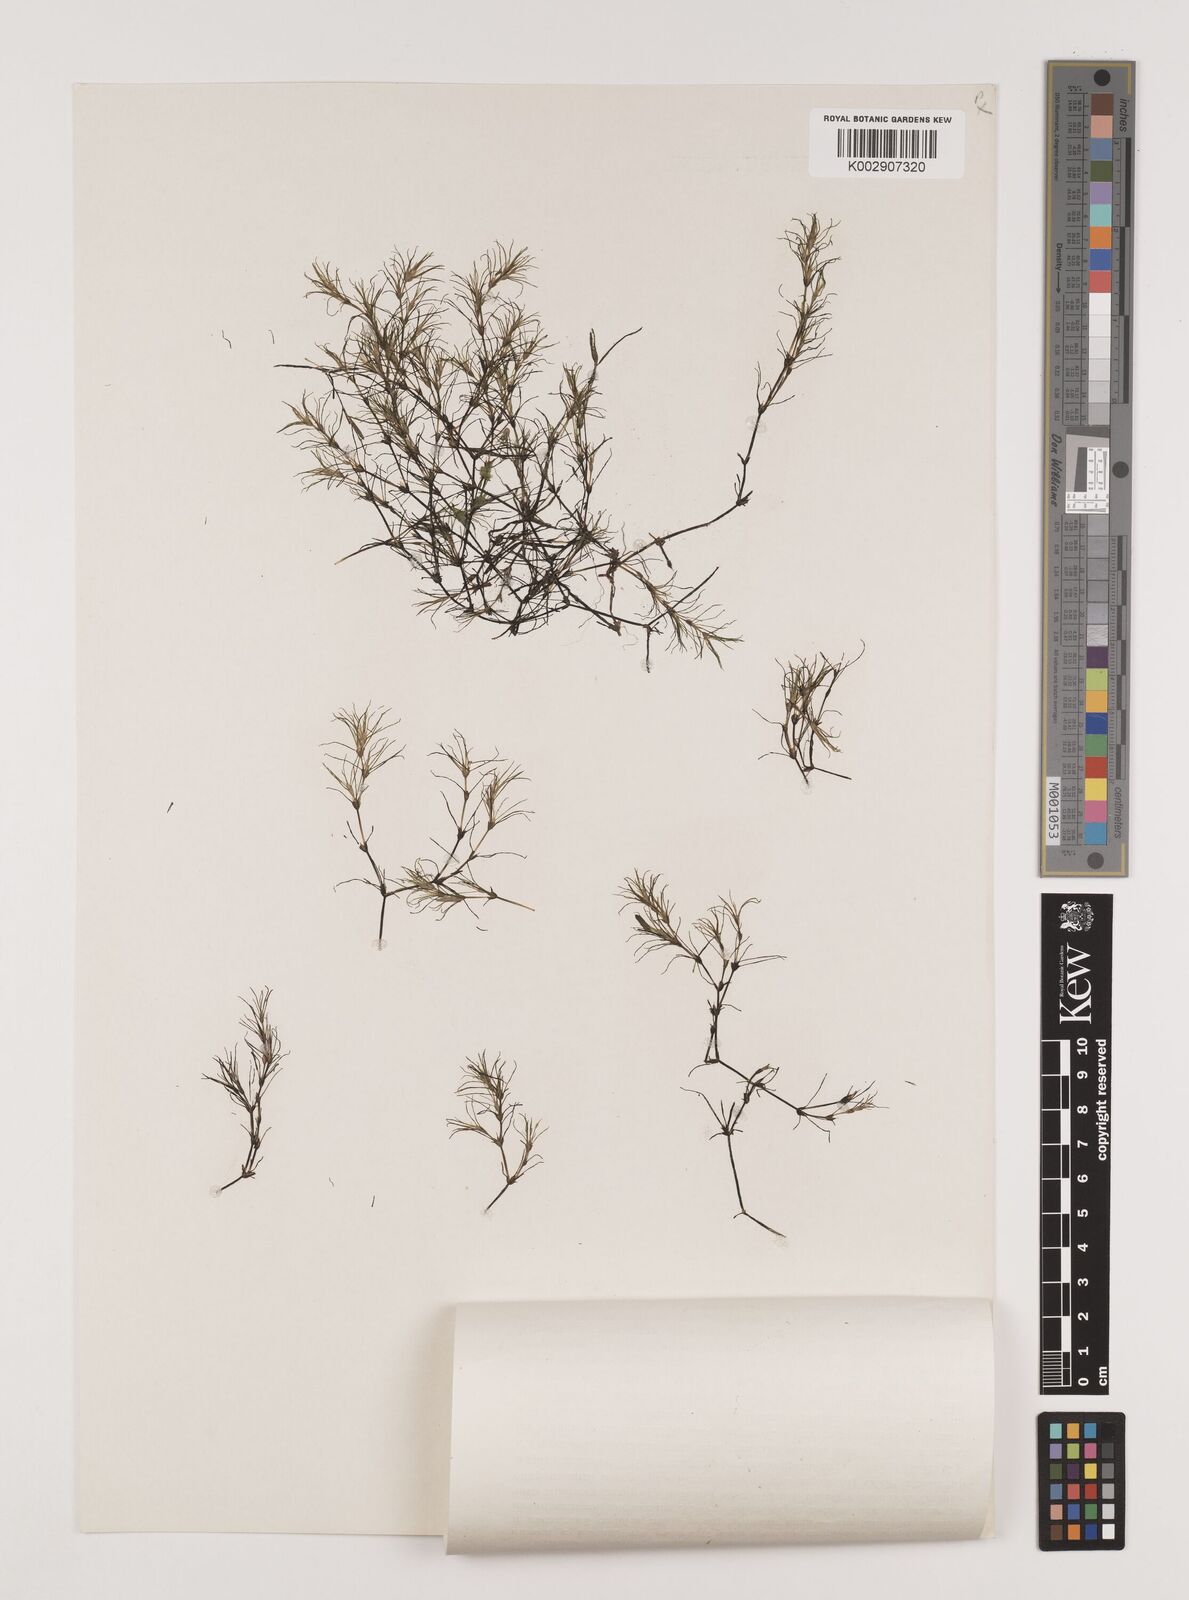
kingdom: Plantae
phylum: Tracheophyta
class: Liliopsida
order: Alismatales
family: Hydrocharitaceae
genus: Najas
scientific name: Najas tenuissima
